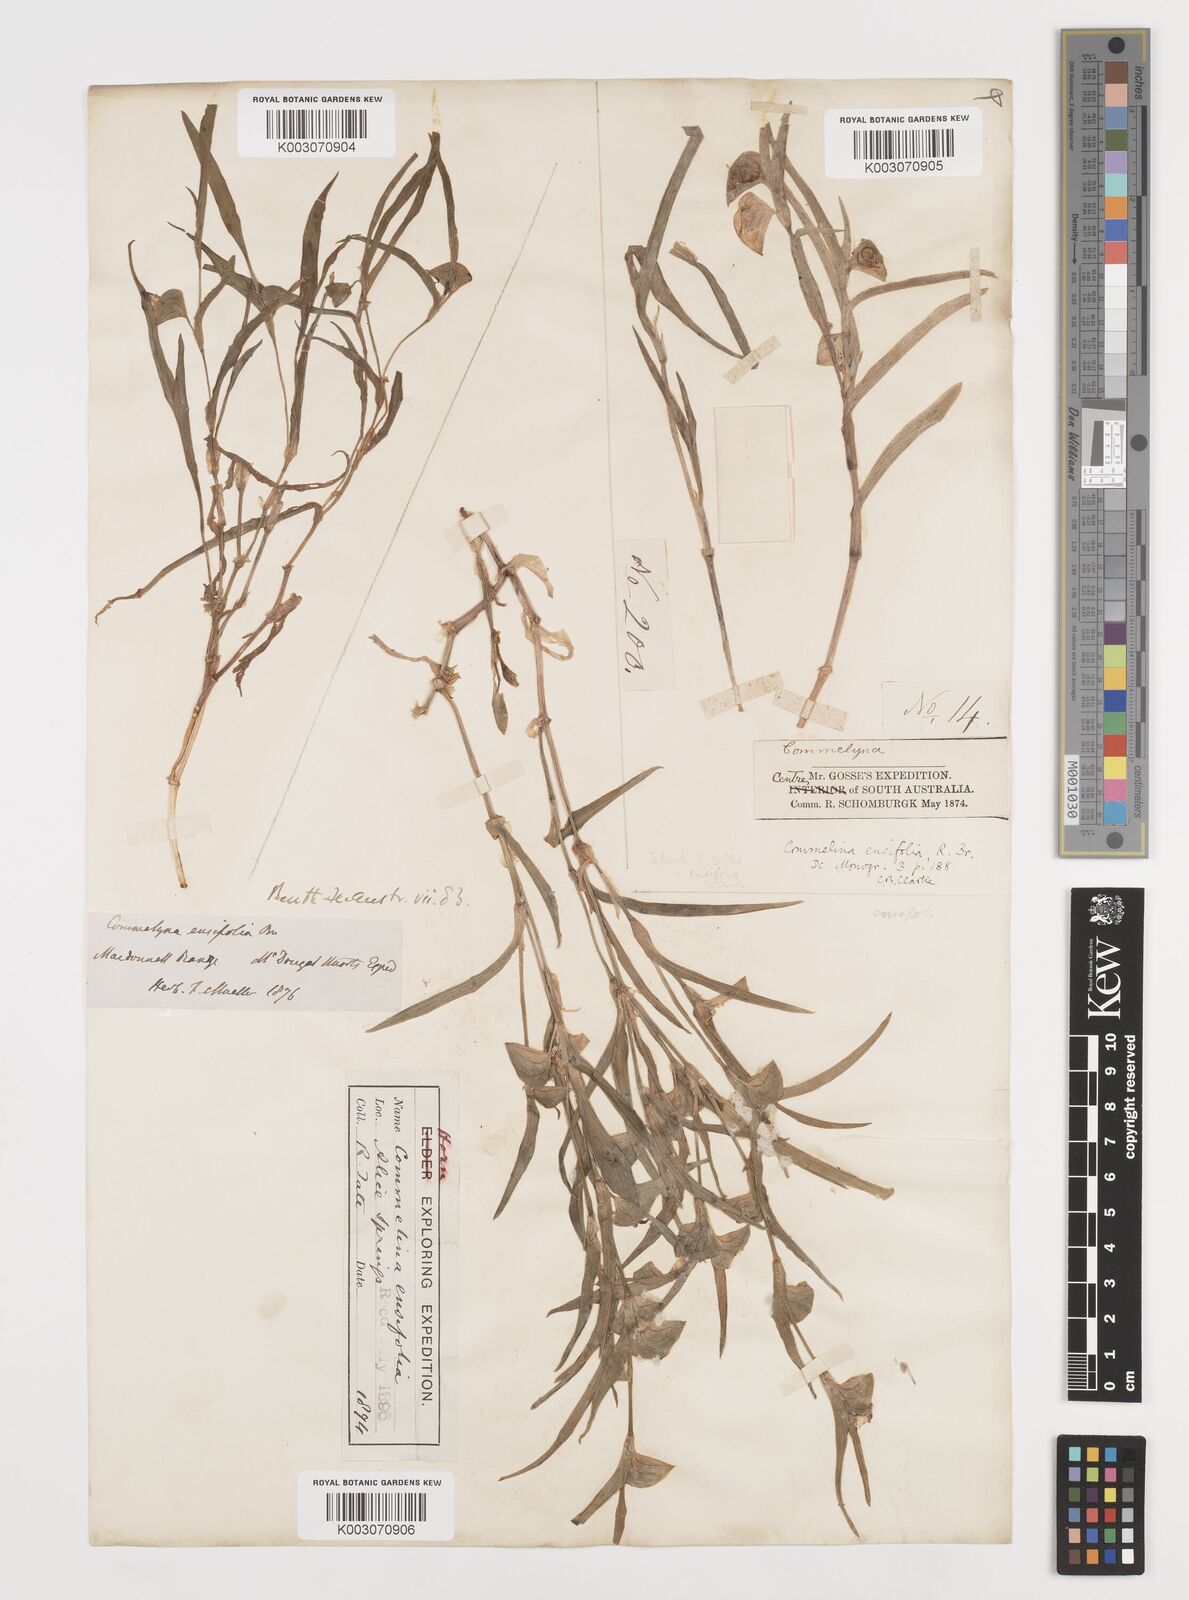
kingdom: Plantae
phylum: Tracheophyta
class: Liliopsida
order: Commelinales
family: Commelinaceae
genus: Commelina
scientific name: Commelina ensifolia
